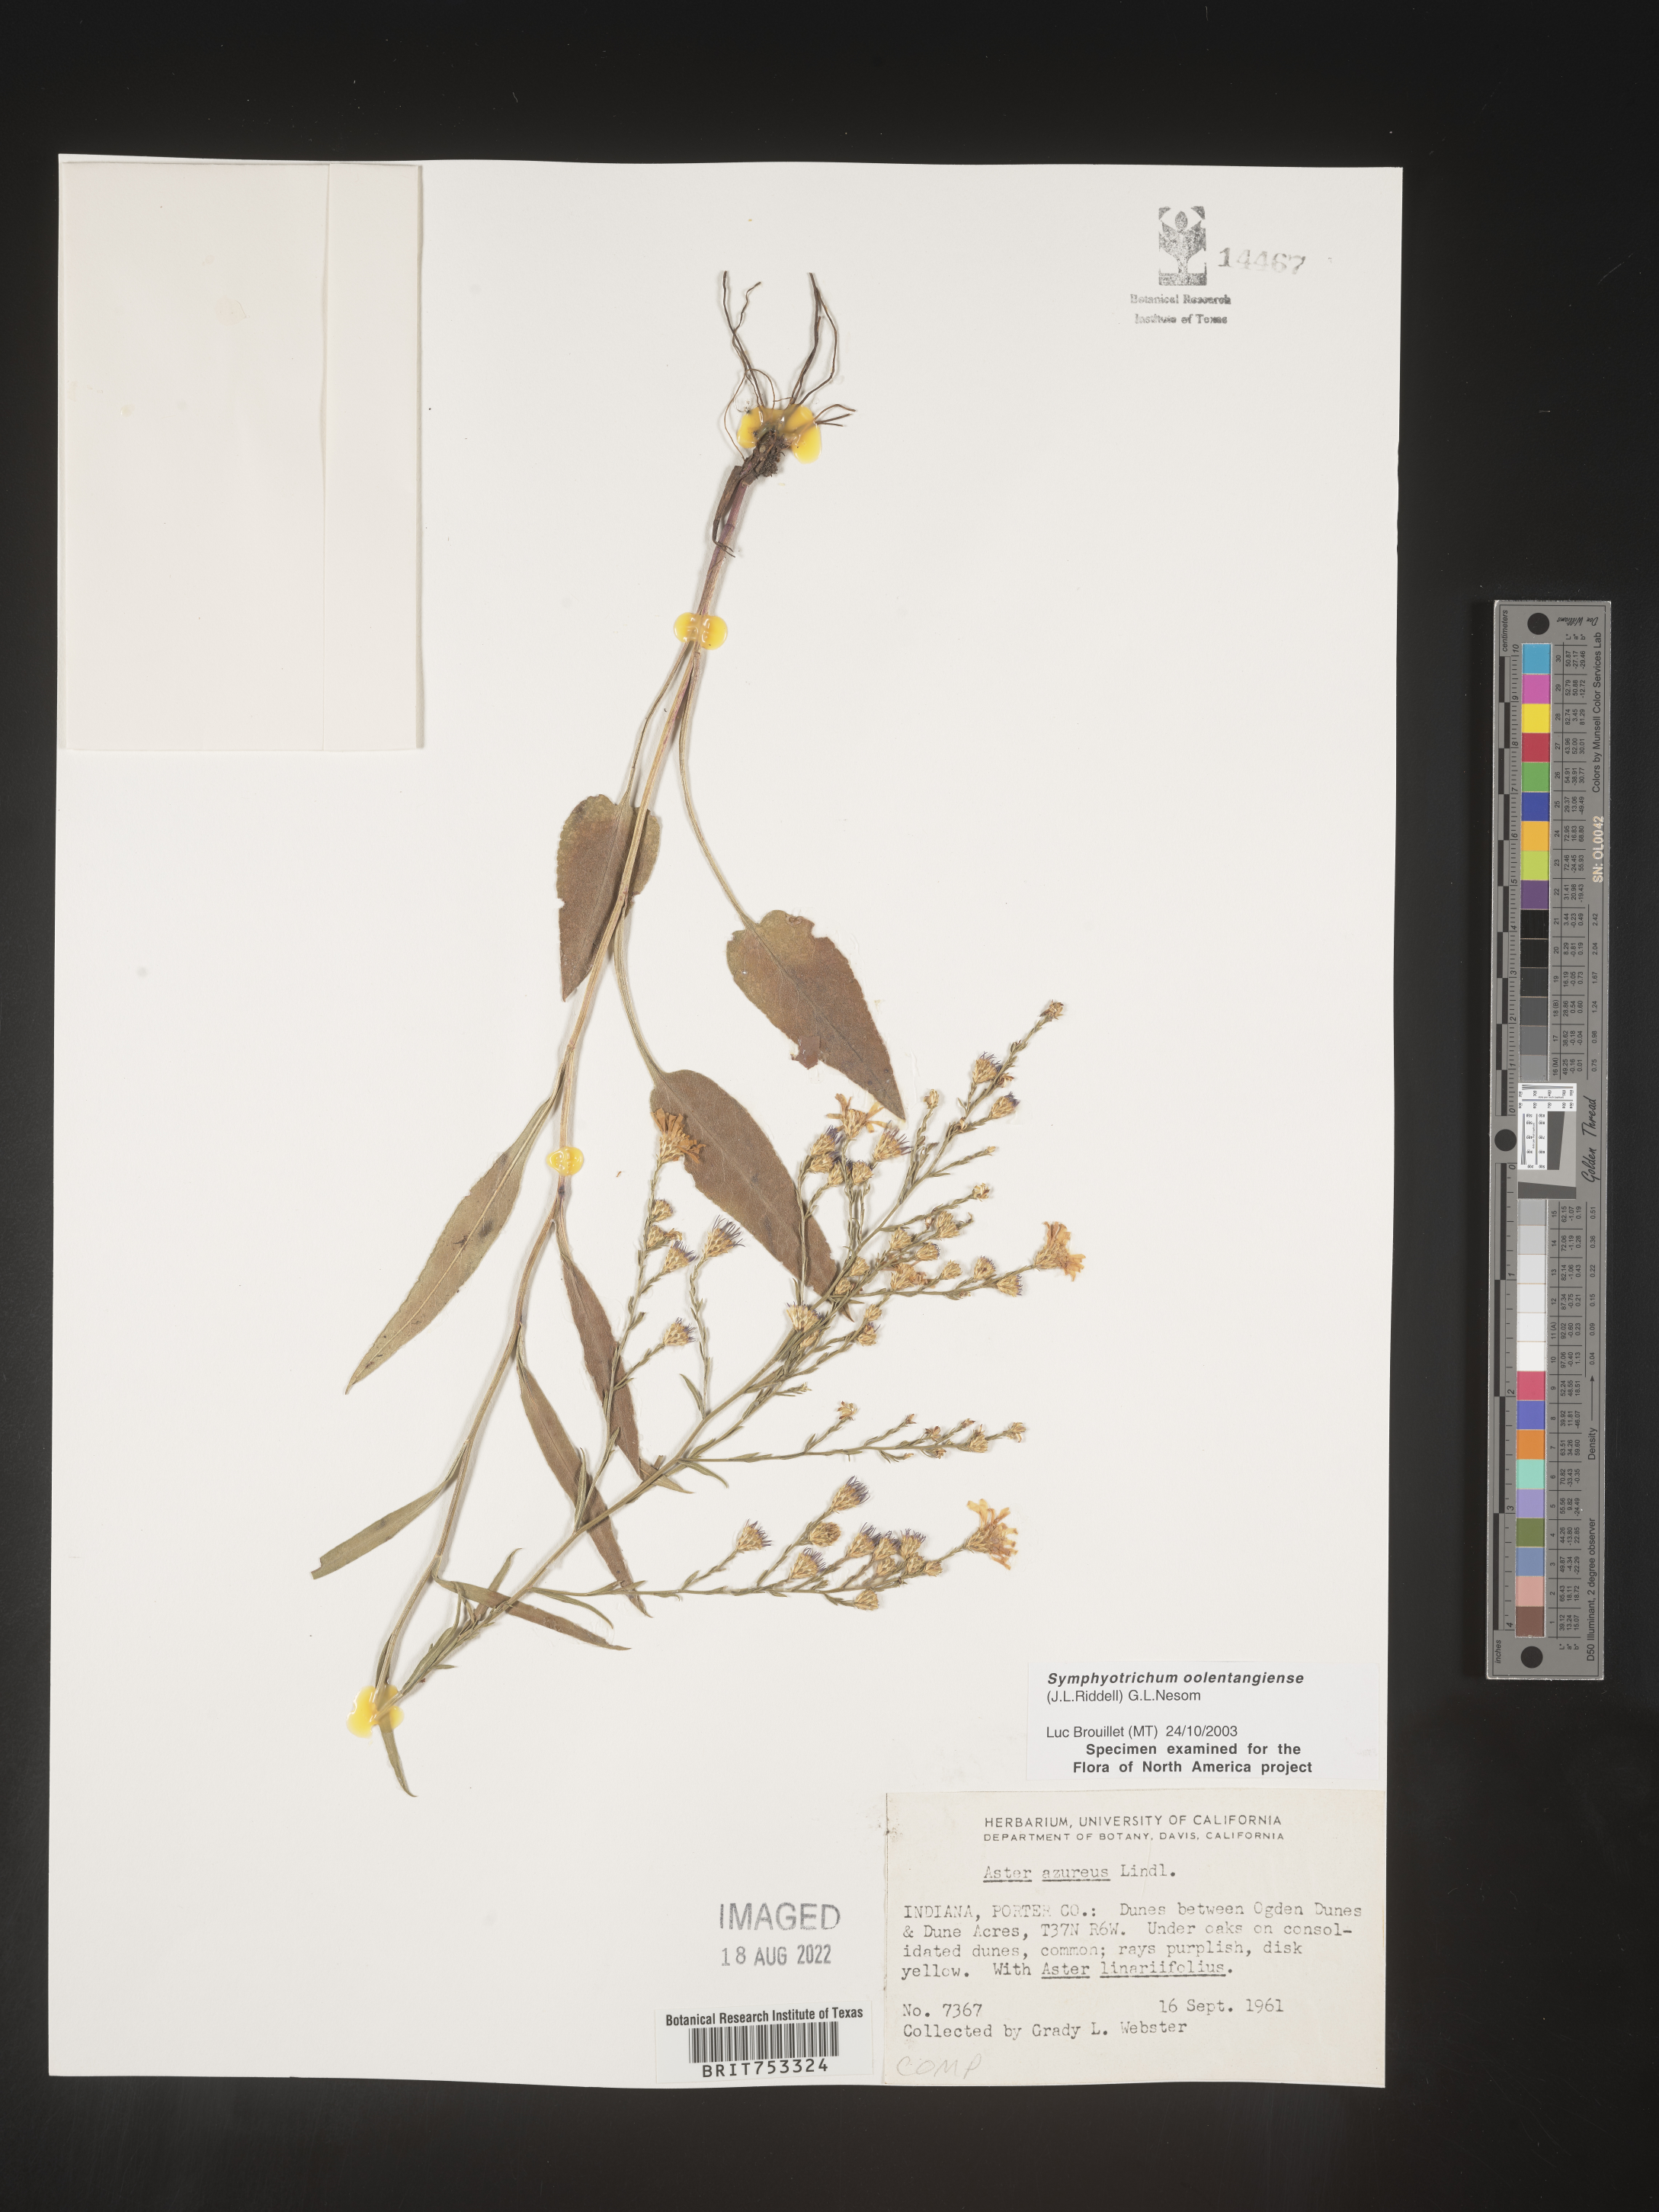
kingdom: Plantae
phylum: Tracheophyta
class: Magnoliopsida
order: Asterales
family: Asteraceae
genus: Symphyotrichum
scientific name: Symphyotrichum oolentangiense
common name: Azure aster
